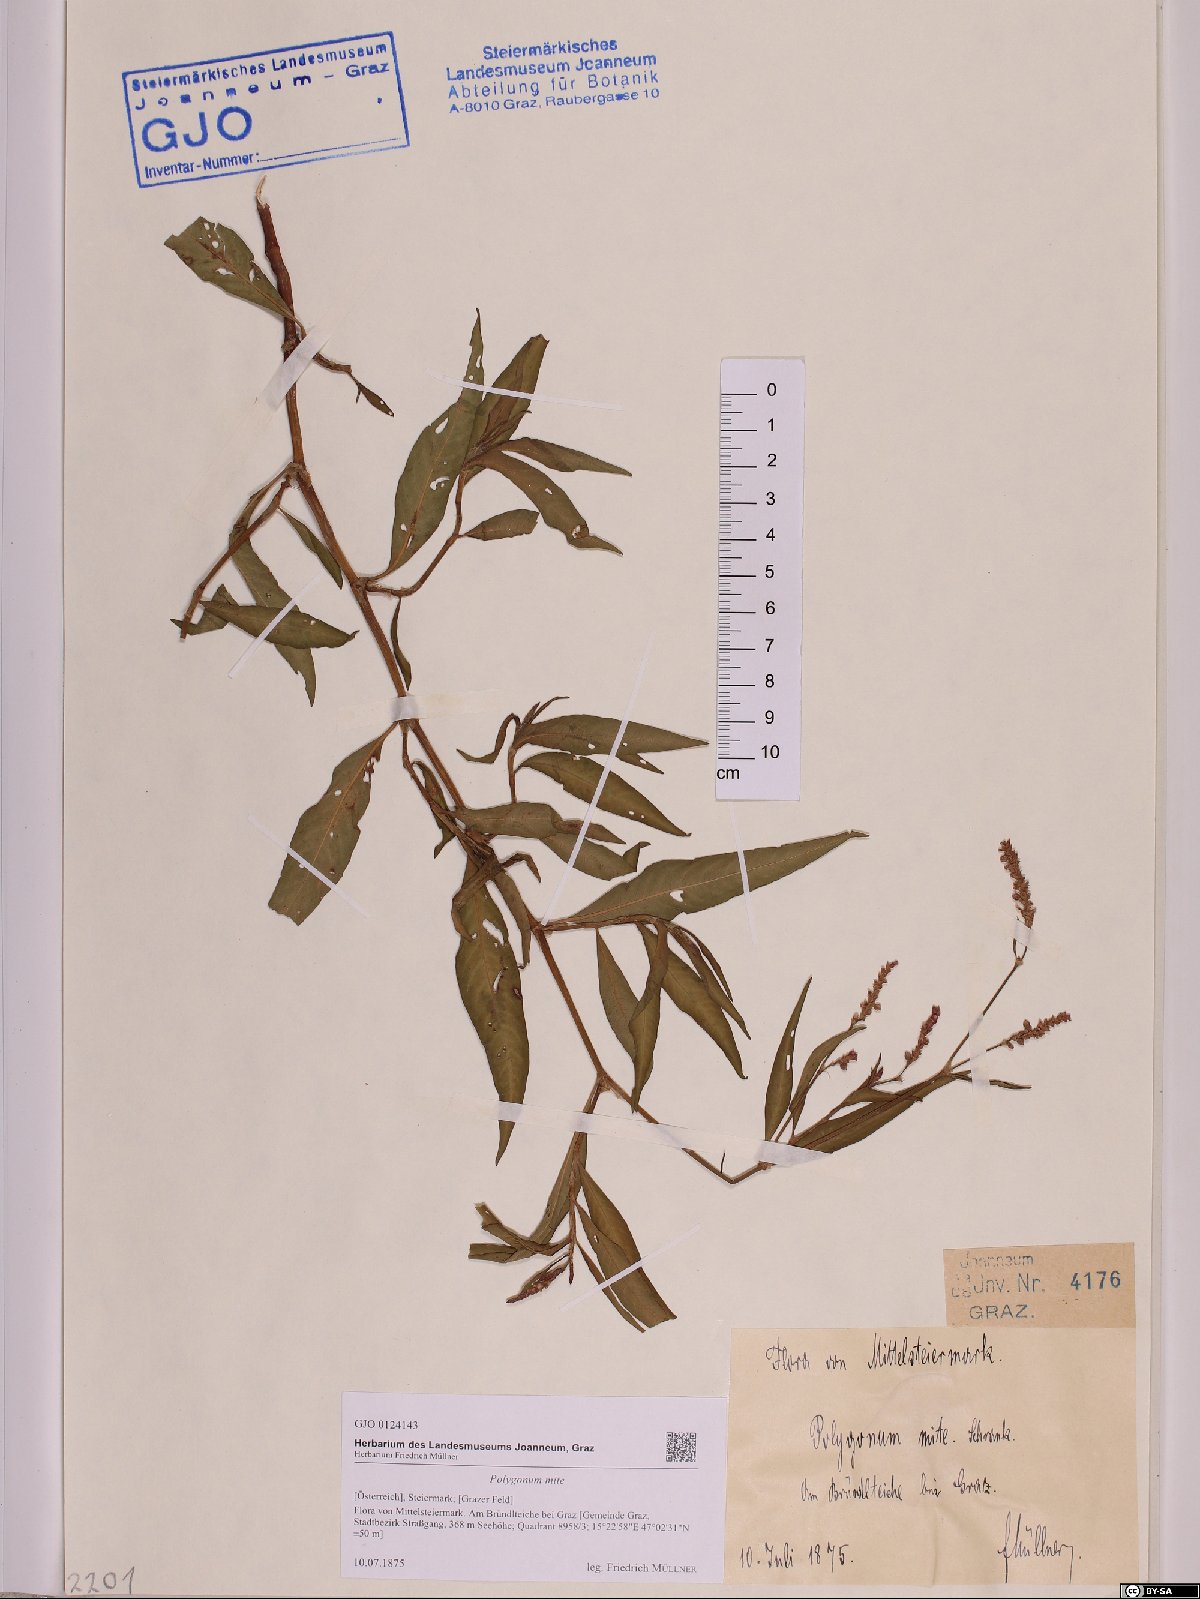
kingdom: Plantae
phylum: Tracheophyta
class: Magnoliopsida
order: Caryophyllales
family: Polygonaceae
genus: Persicaria
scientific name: Persicaria mitis
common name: Tasteless water-pepper
